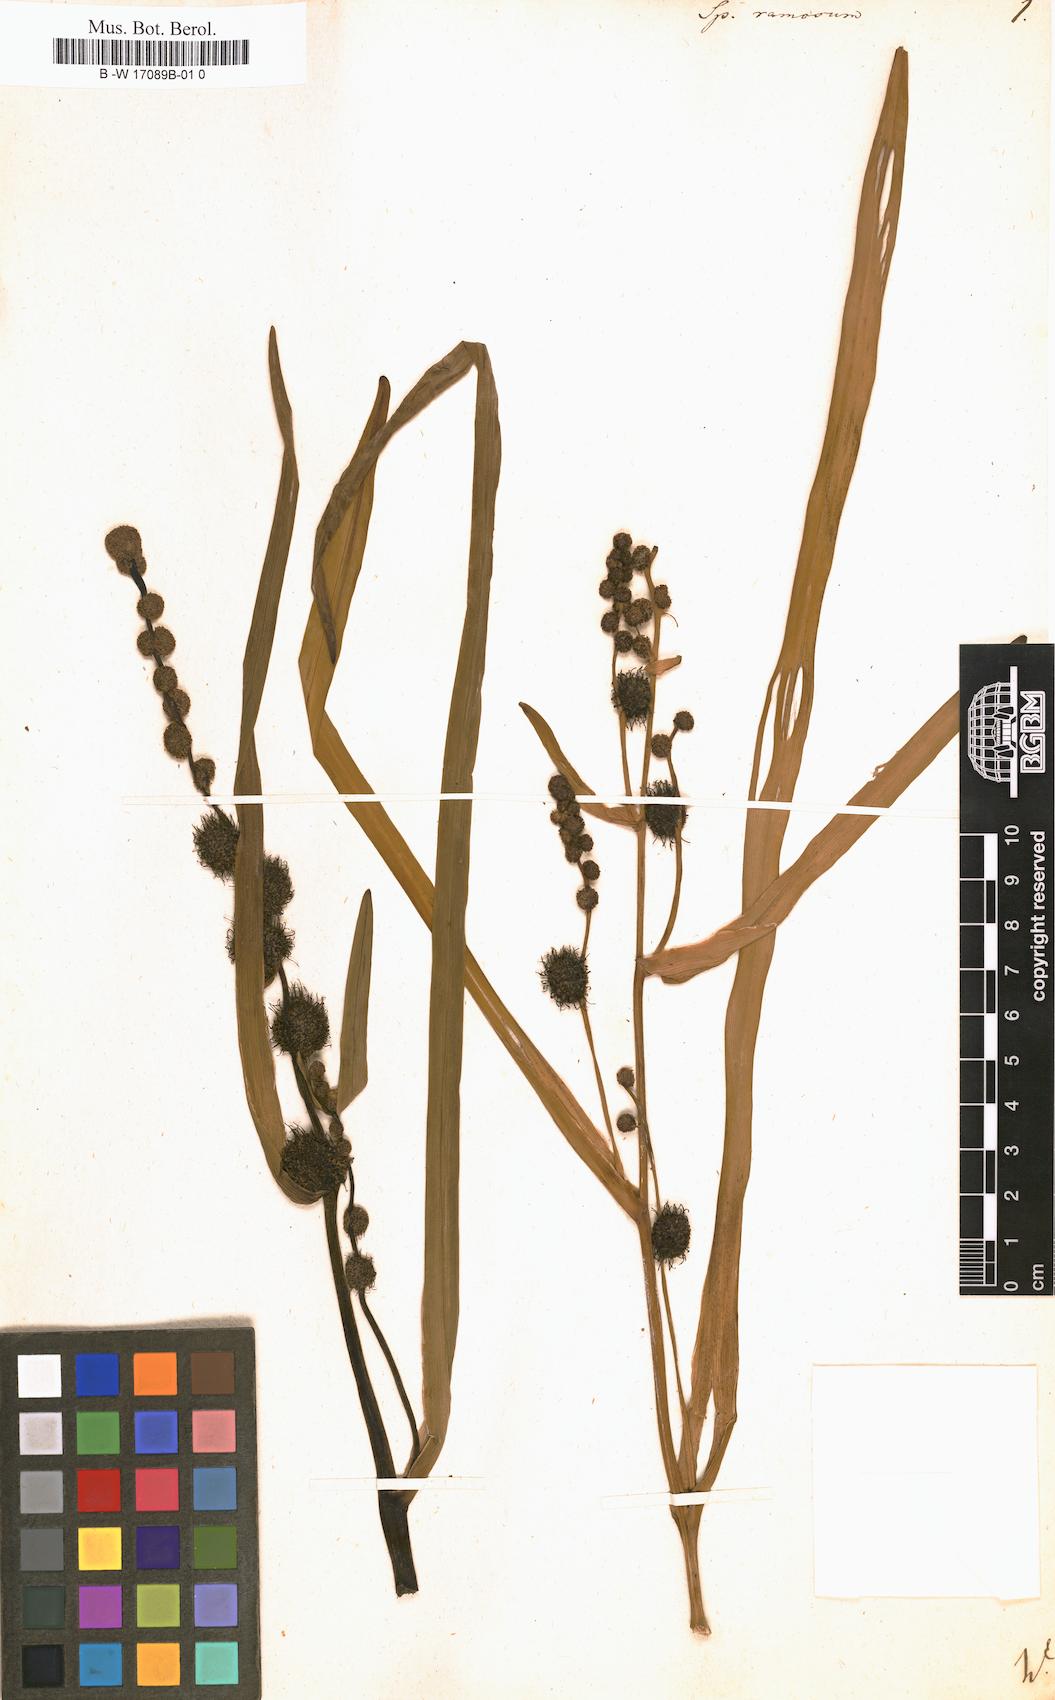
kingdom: Plantae
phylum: Tracheophyta
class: Liliopsida
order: Poales
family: Typhaceae
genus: Sparganium
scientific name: Sparganium erectum
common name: Branched bur-reed
